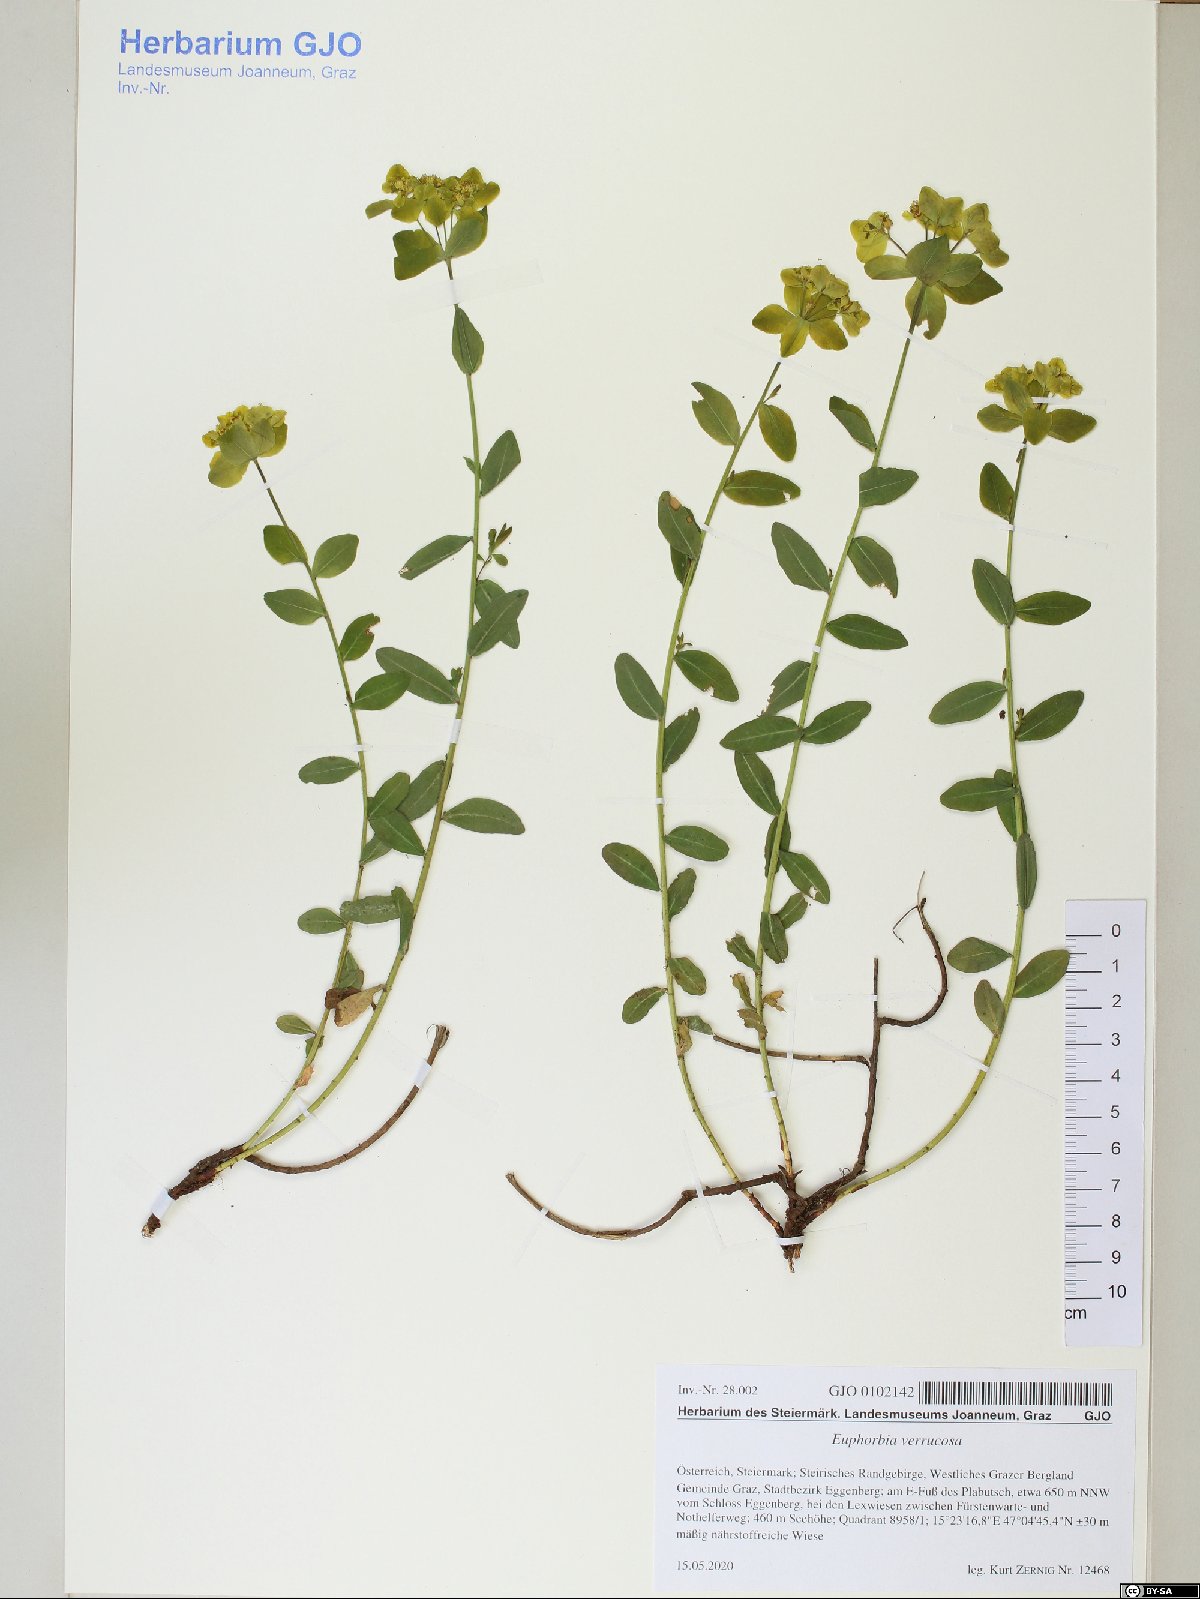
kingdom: Plantae
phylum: Tracheophyta
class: Magnoliopsida
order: Malpighiales
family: Euphorbiaceae
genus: Euphorbia
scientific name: Euphorbia verrucosa
